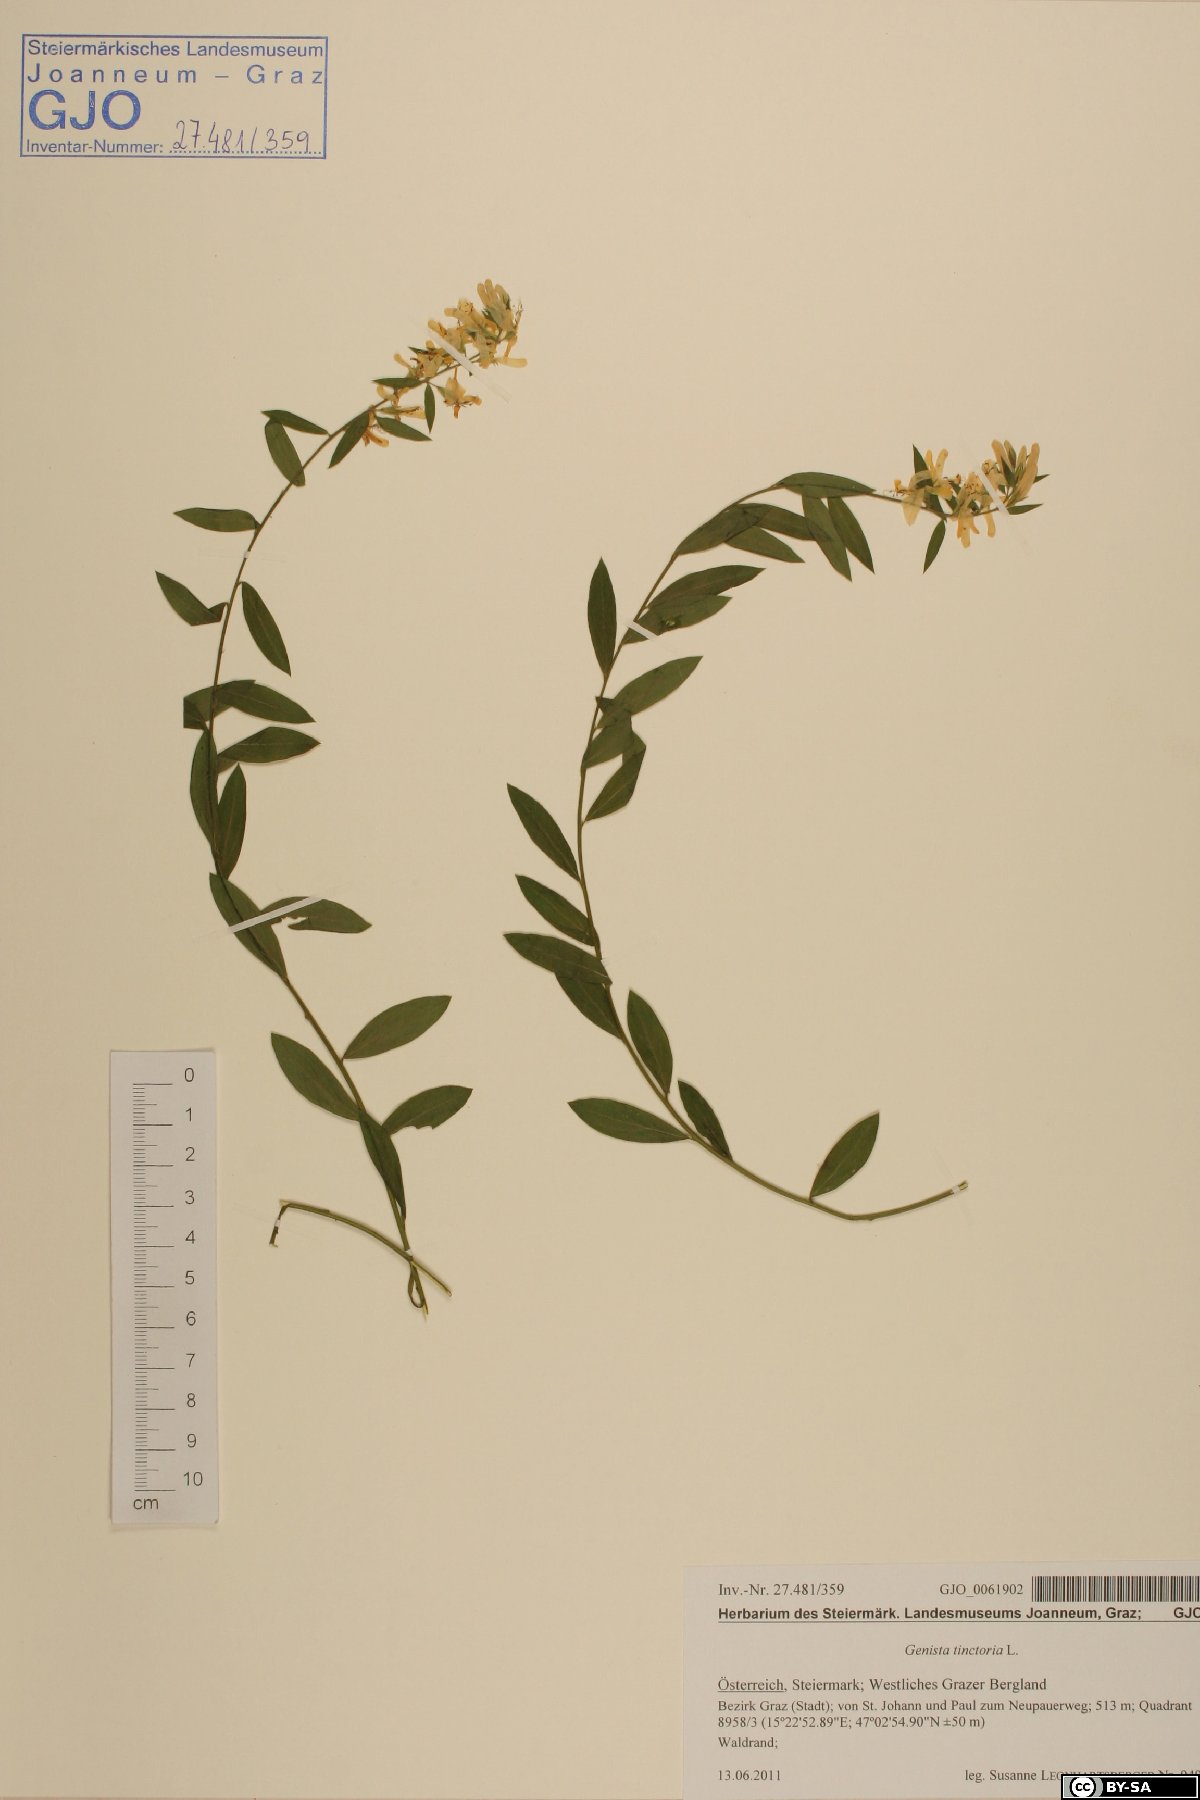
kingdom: Plantae
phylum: Tracheophyta
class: Magnoliopsida
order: Fabales
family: Fabaceae
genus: Genista
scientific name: Genista tinctoria
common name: Dyer's greenweed
